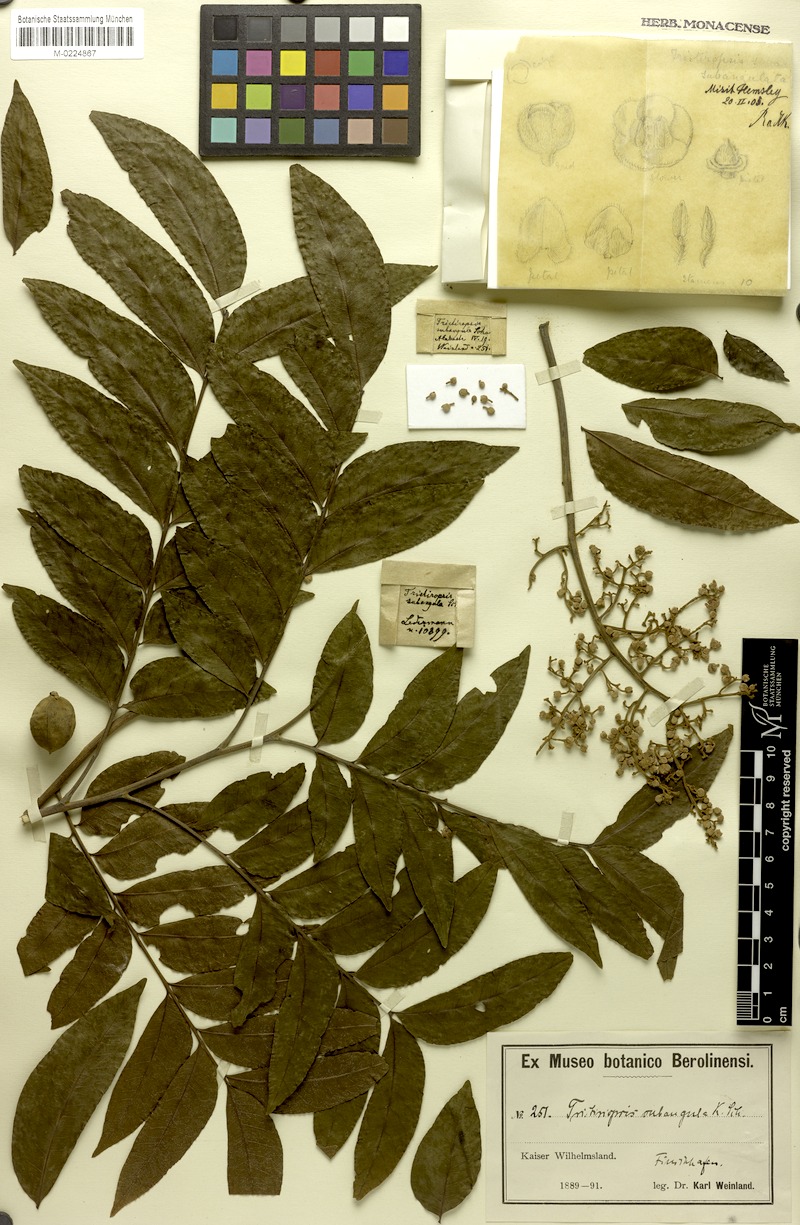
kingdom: Plantae
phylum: Tracheophyta
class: Magnoliopsida
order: Sapindales
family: Sapindaceae
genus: Tristiropsis
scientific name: Tristiropsis acutangula
